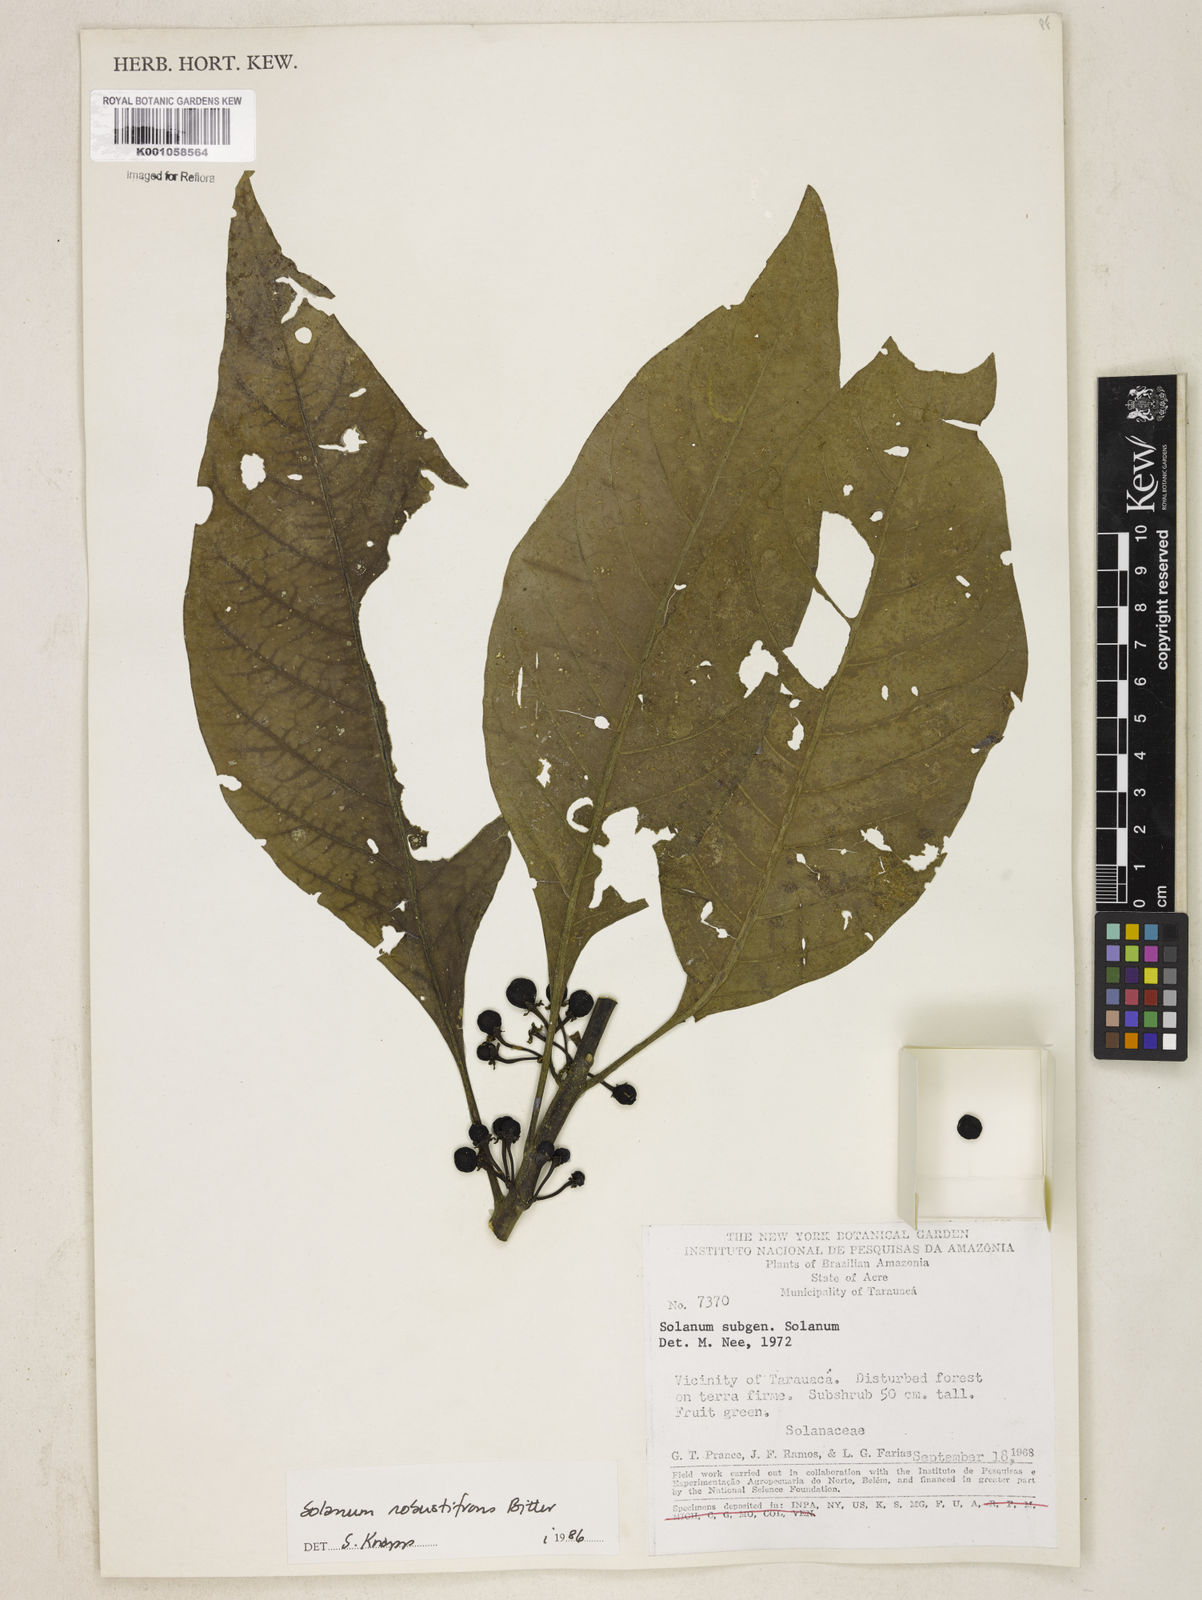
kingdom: Plantae
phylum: Tracheophyta
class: Magnoliopsida
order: Solanales
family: Solanaceae
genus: Solanum
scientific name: Solanum robustifrons
